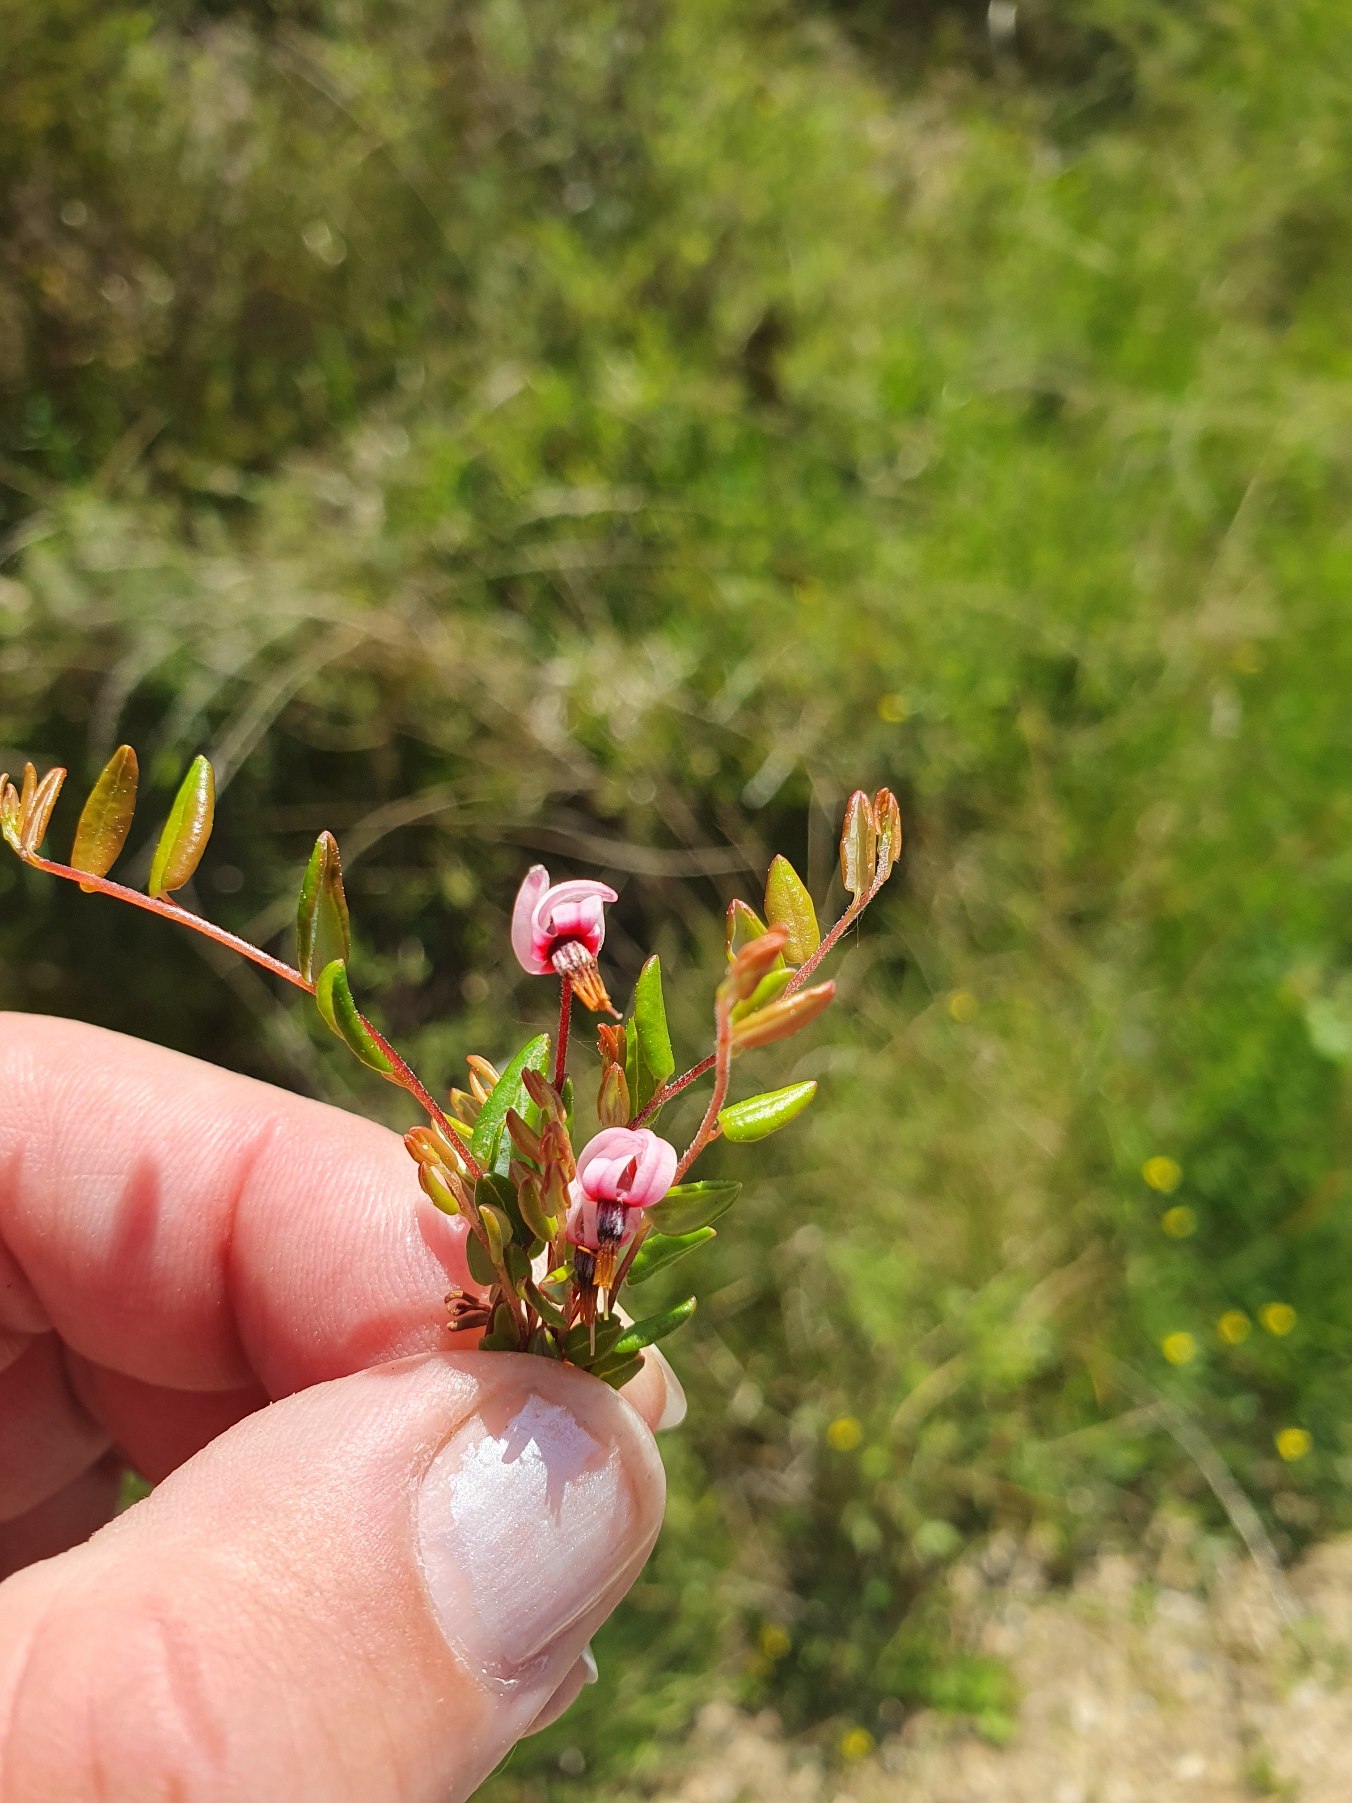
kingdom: Plantae
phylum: Tracheophyta
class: Magnoliopsida
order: Ericales
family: Ericaceae
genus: Vaccinium
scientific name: Vaccinium oxycoccos
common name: Tranebær
